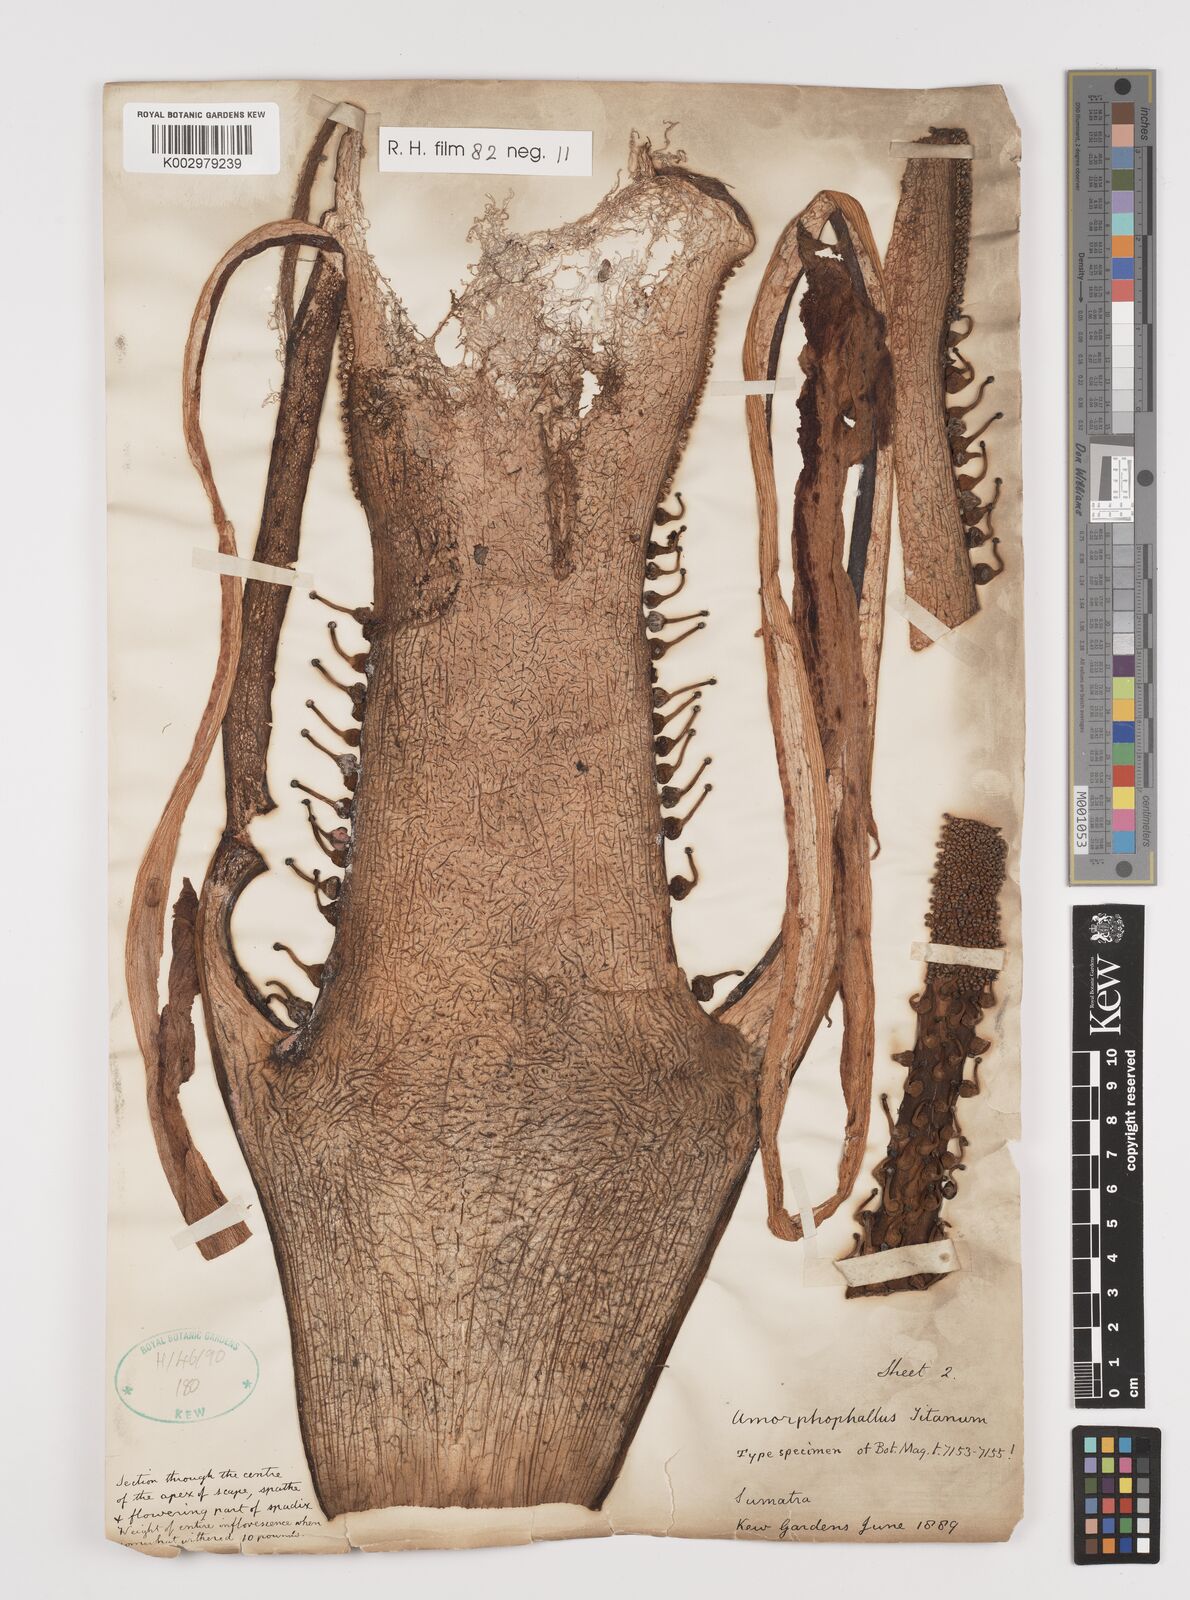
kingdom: Plantae
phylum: Tracheophyta
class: Liliopsida
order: Alismatales
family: Araceae
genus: Amorphophallus
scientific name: Amorphophallus titanum
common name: Titan arum
